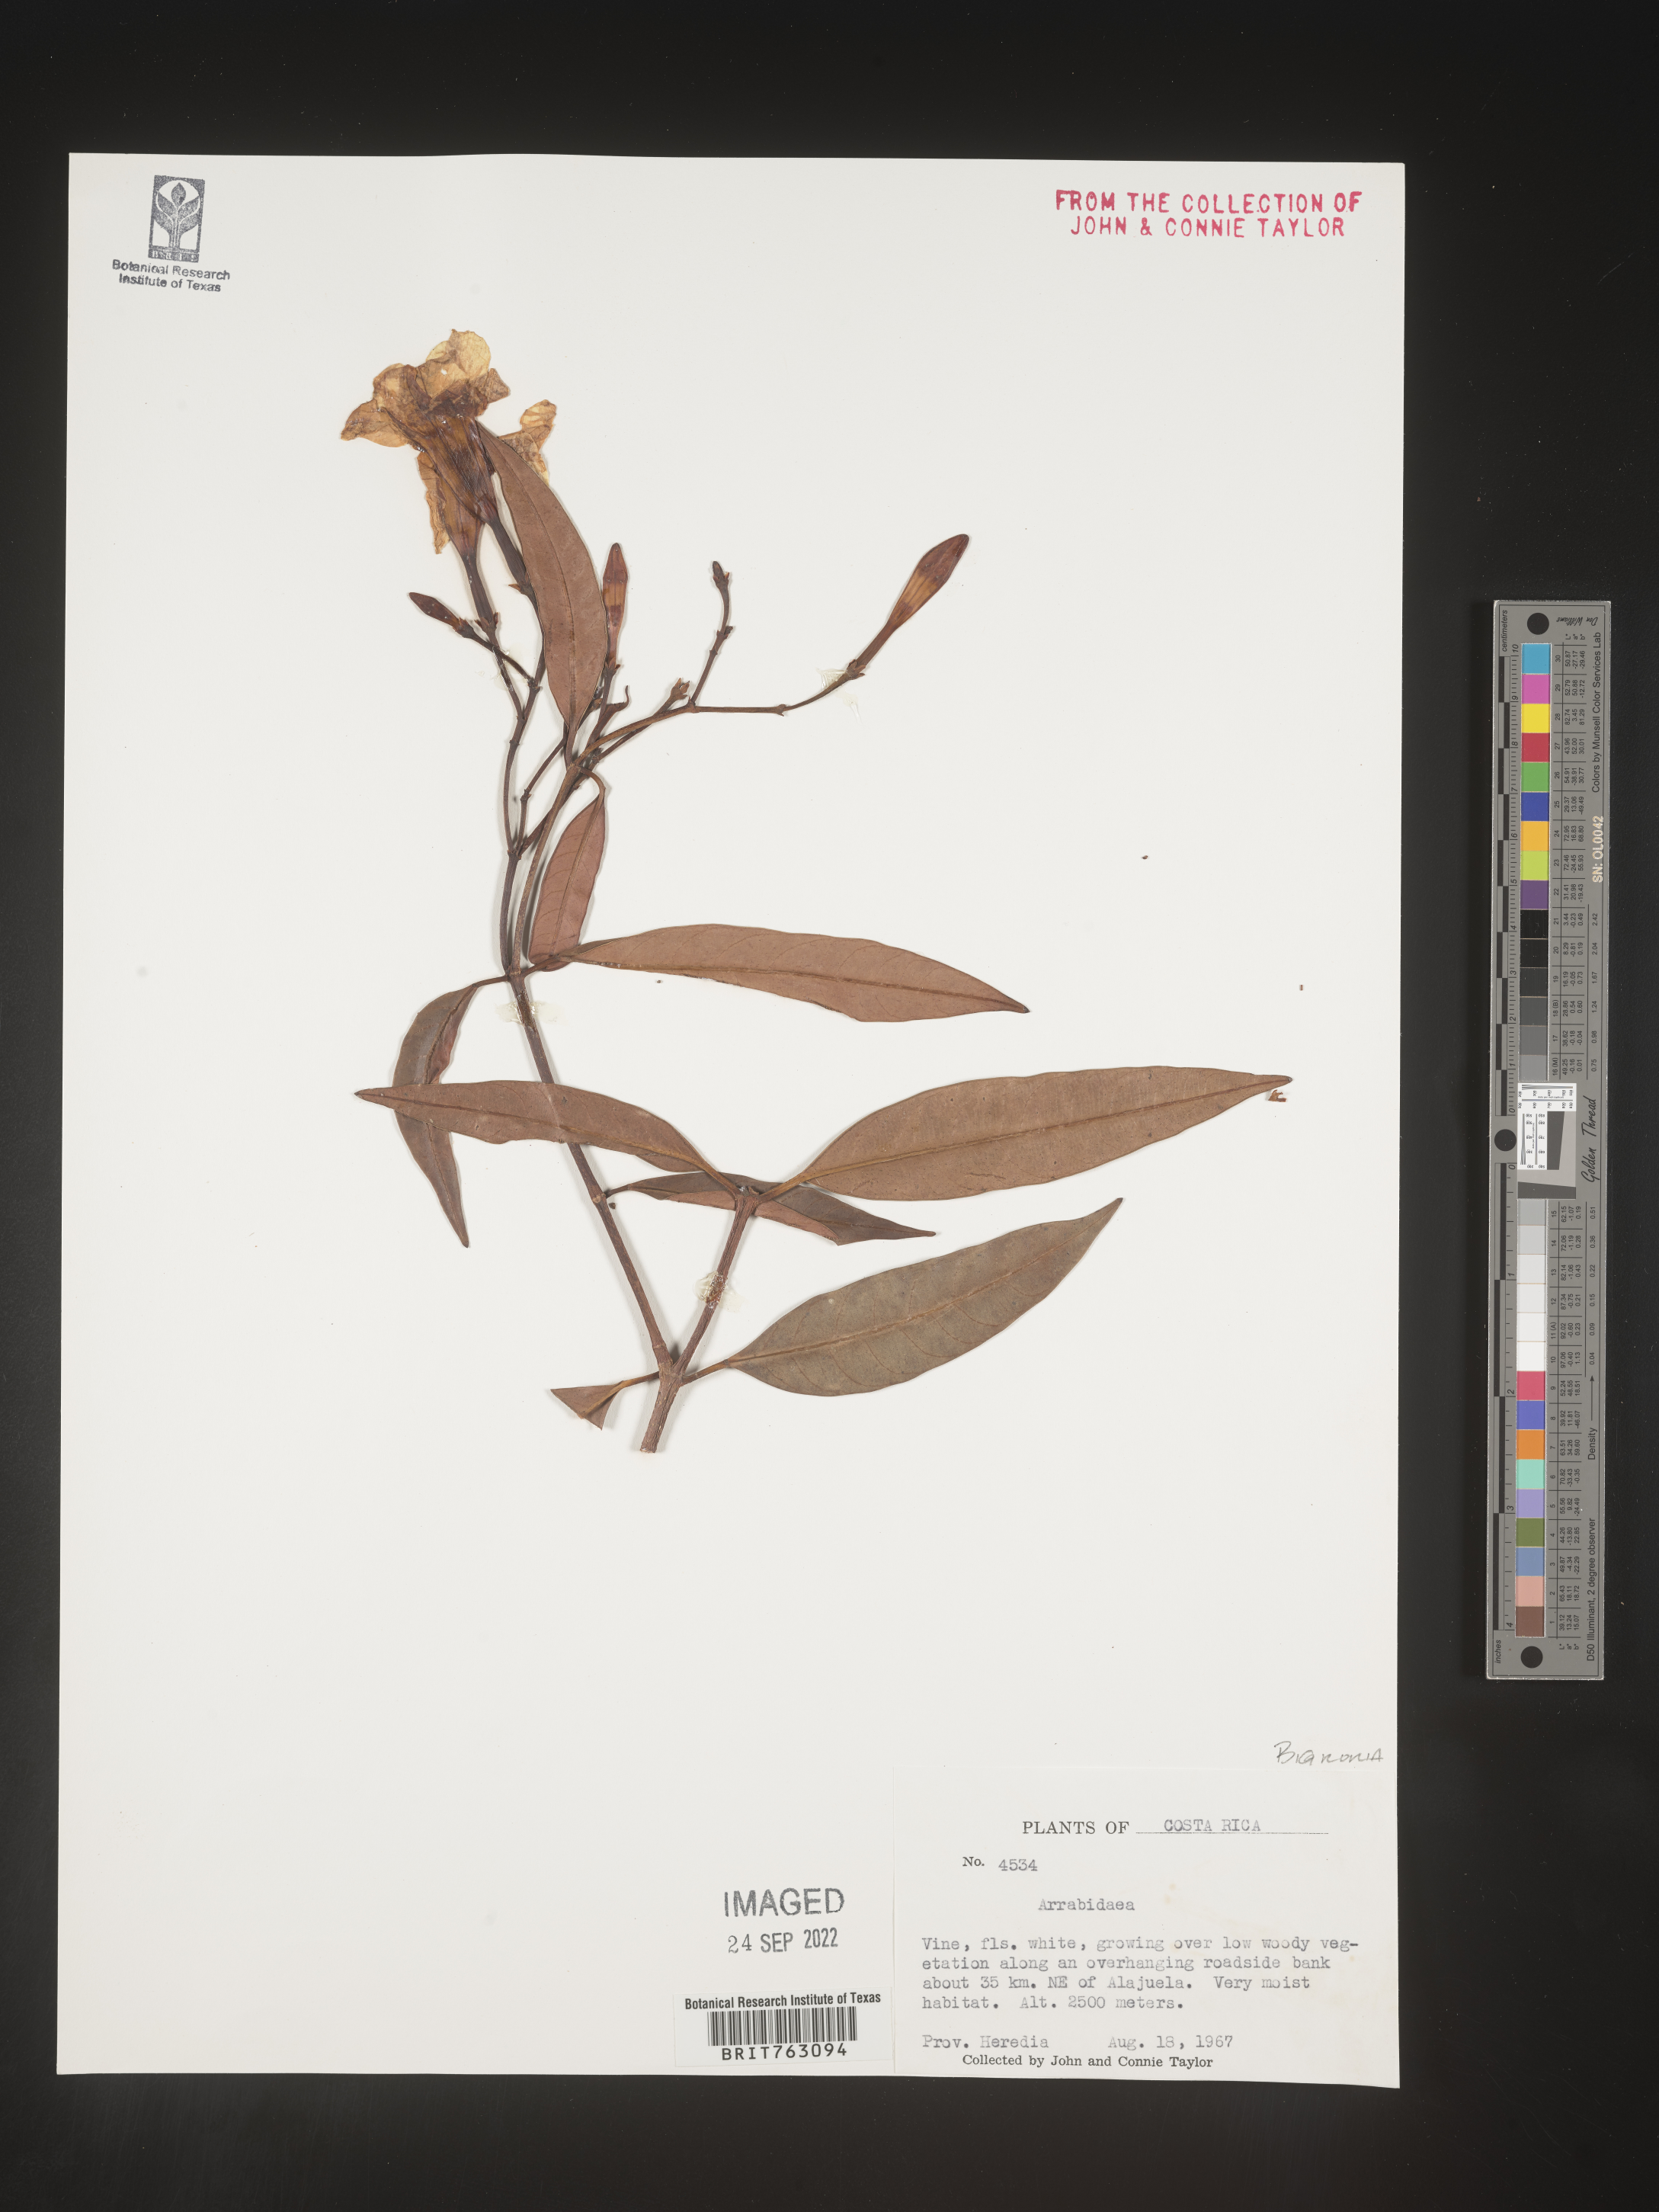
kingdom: Plantae
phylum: Tracheophyta
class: Magnoliopsida
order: Rosales
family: Rhamnaceae
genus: Arrabidaea
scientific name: Arrabidaea
